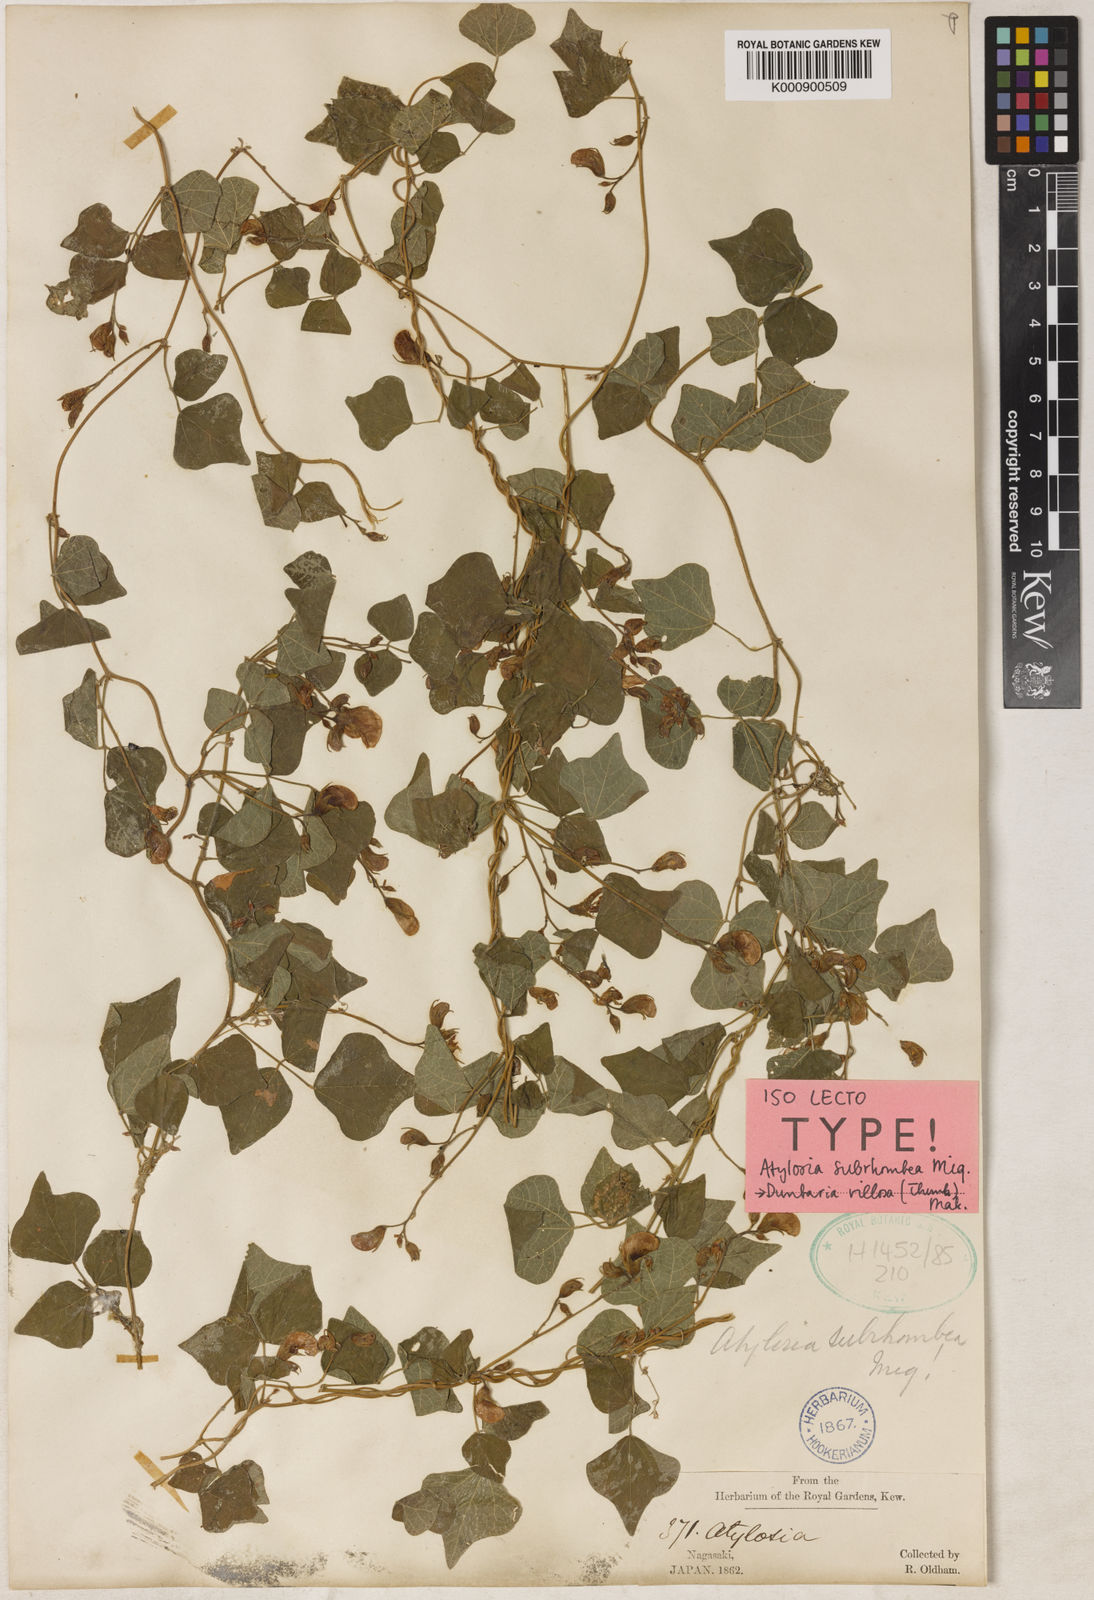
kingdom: Plantae
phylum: Tracheophyta
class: Magnoliopsida
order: Fabales
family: Fabaceae
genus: Dunbaria
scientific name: Dunbaria villosa
